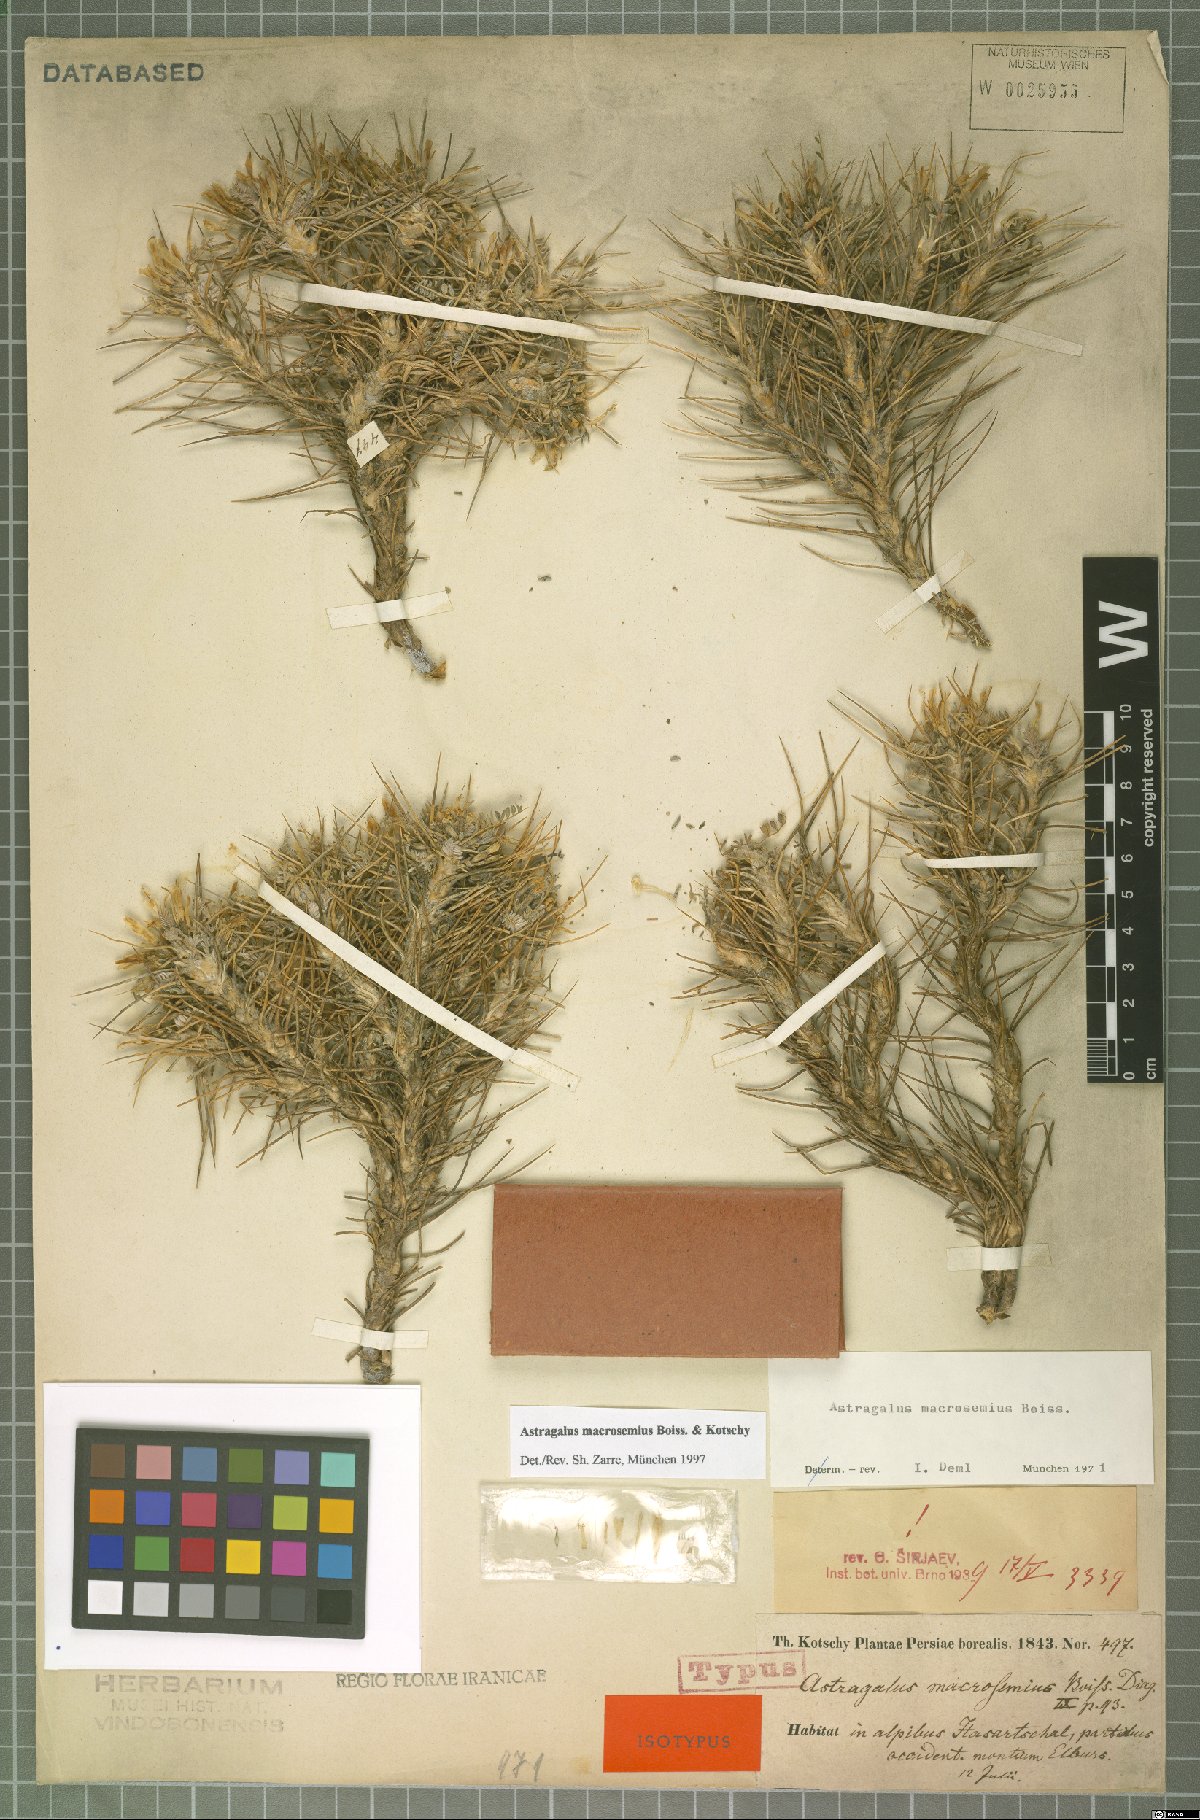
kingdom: Plantae
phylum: Tracheophyta
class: Magnoliopsida
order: Fabales
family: Fabaceae
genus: Astragalus
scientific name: Astragalus macrosemius
